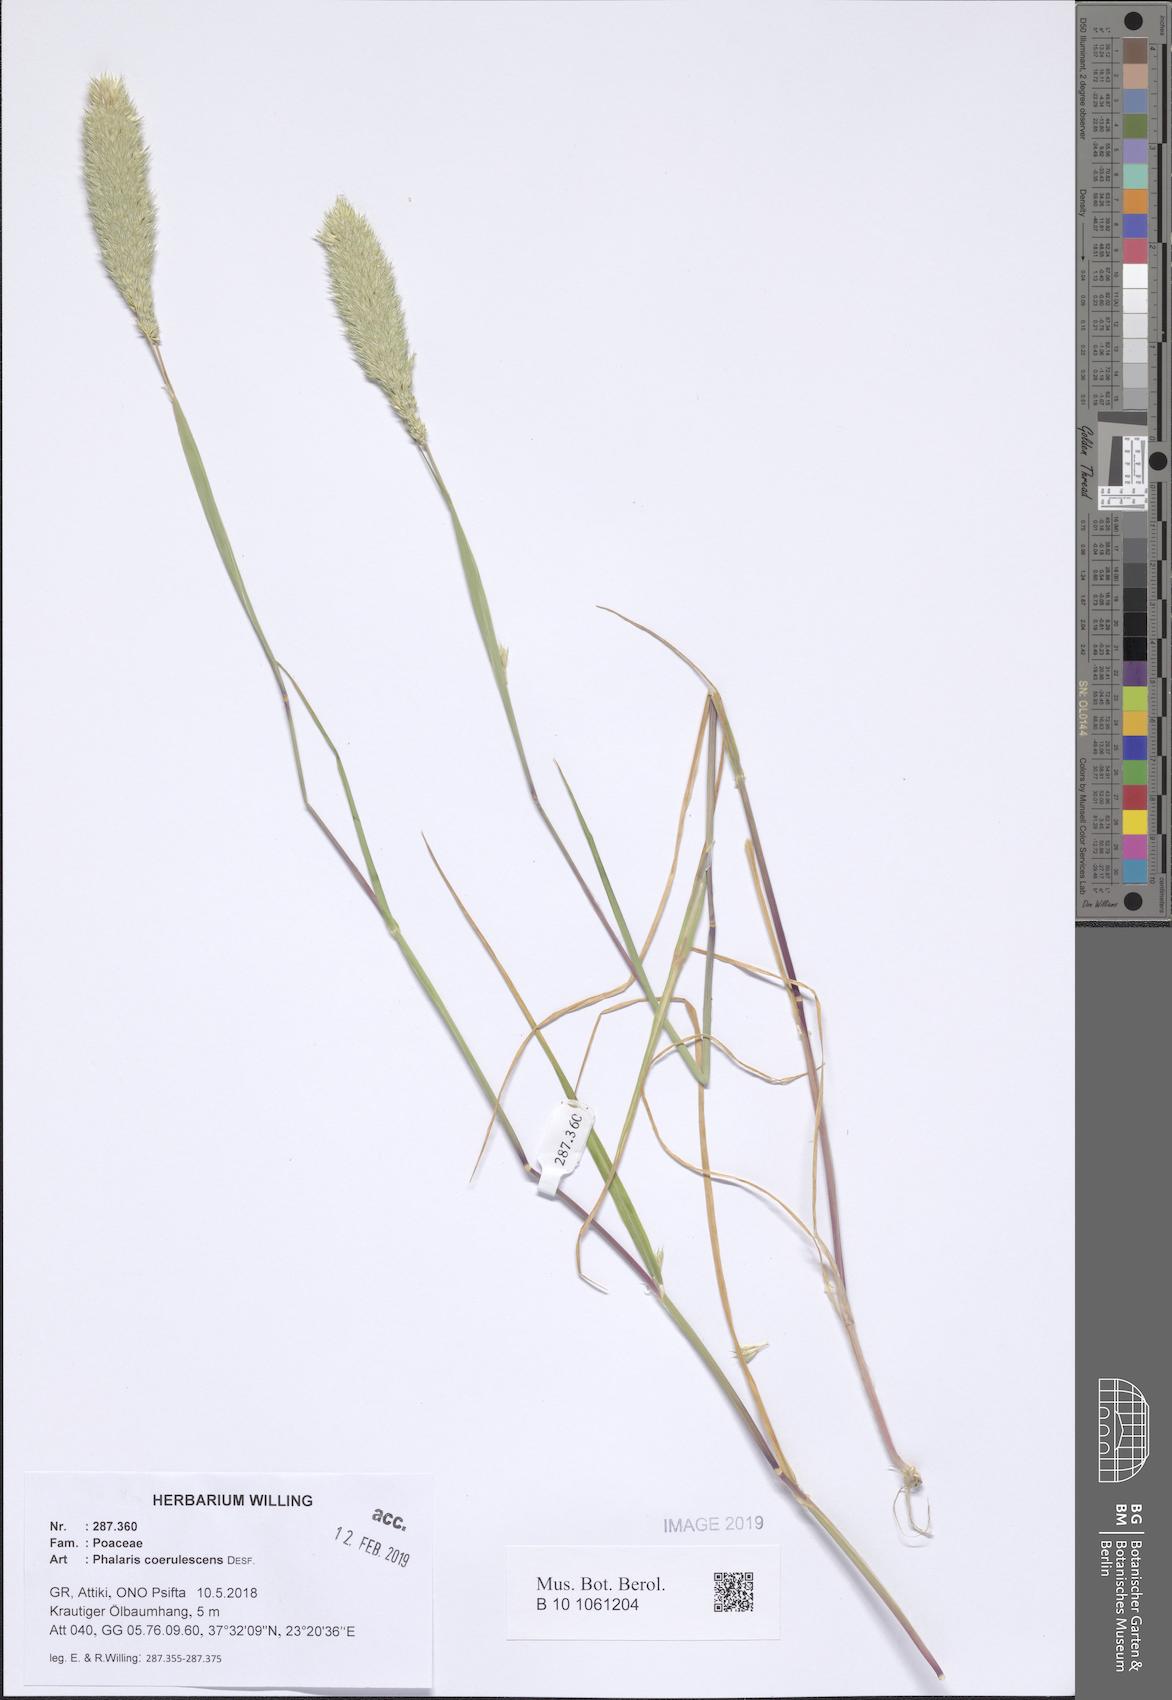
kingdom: Plantae
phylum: Tracheophyta
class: Liliopsida
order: Poales
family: Poaceae
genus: Phalaris
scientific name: Phalaris coerulescens
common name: Sunolgrass
